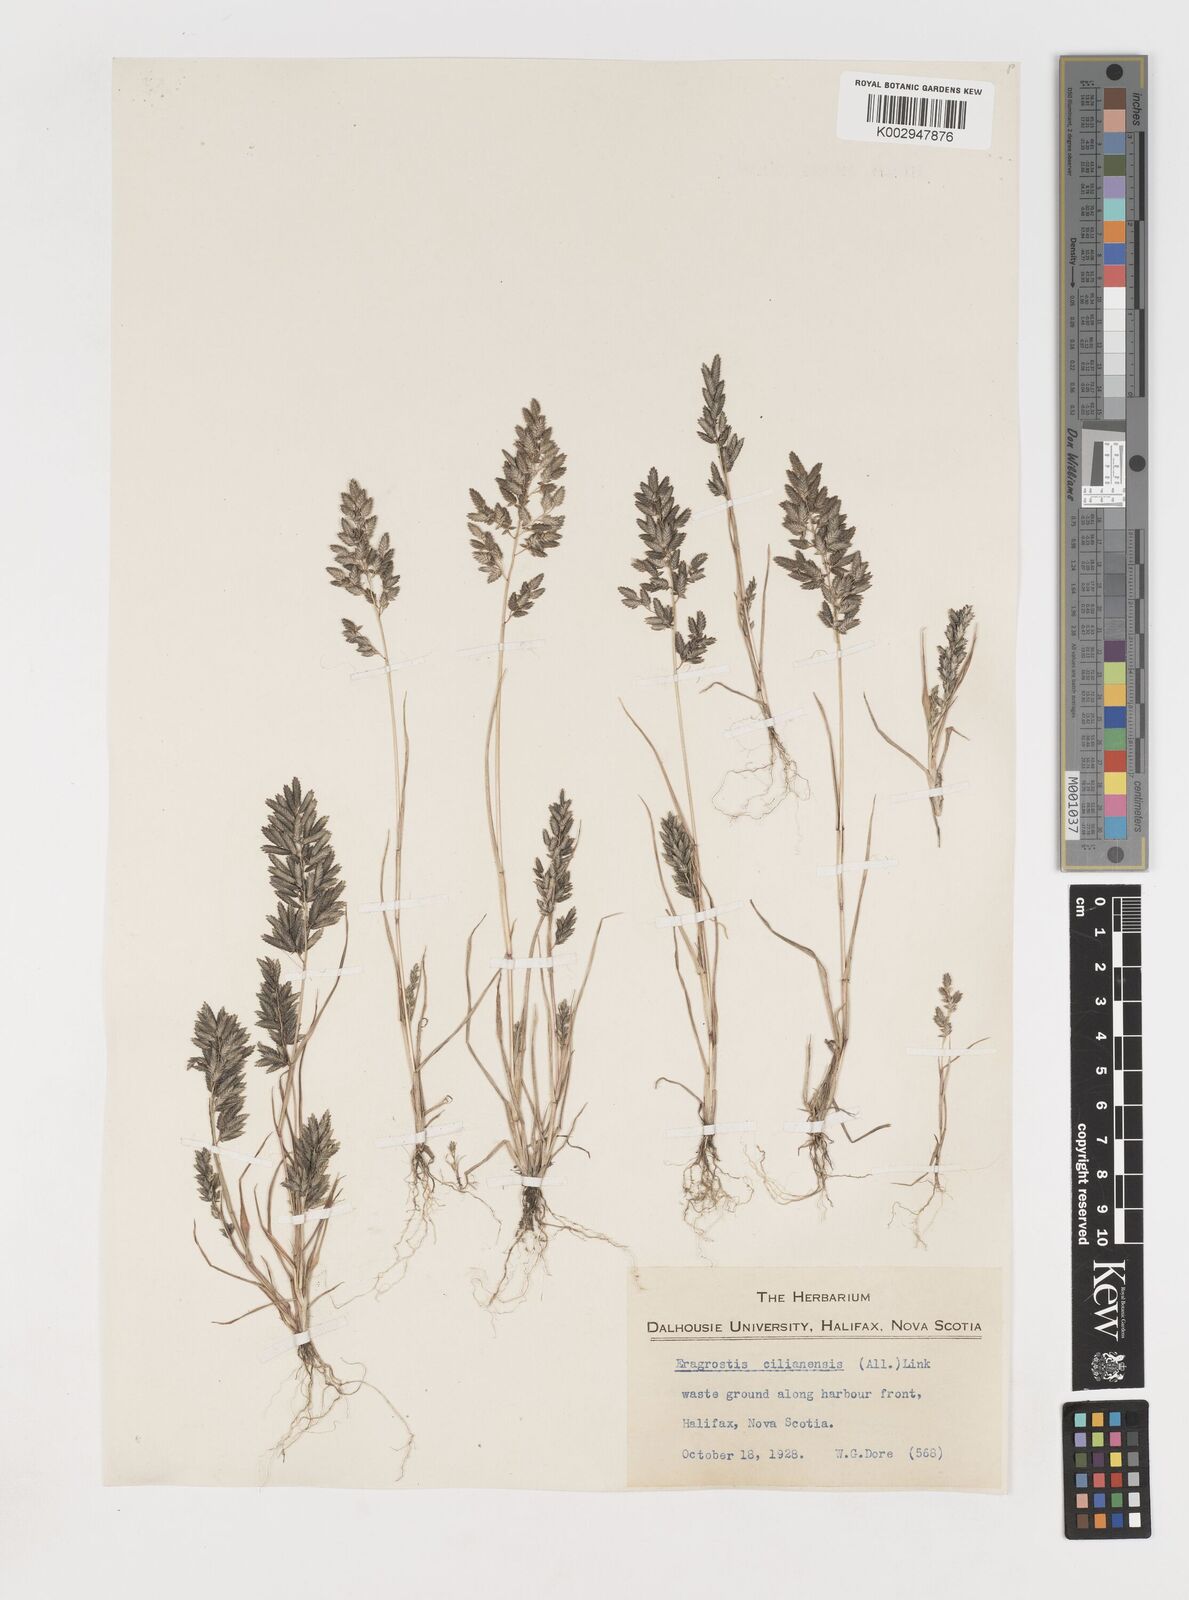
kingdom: Plantae
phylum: Tracheophyta
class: Liliopsida
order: Poales
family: Poaceae
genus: Eragrostis
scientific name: Eragrostis cilianensis
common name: Stinkgrass
